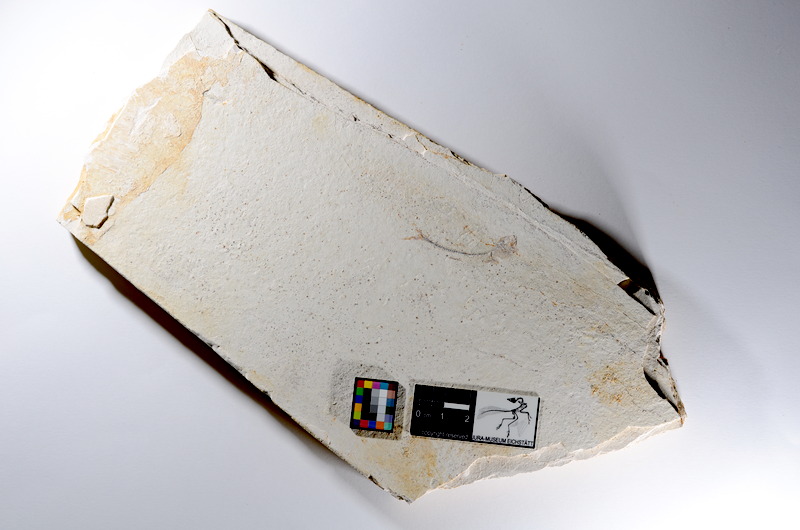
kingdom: Animalia
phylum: Chordata
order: Salmoniformes
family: Orthogonikleithridae
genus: Orthogonikleithrus
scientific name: Orthogonikleithrus hoelli
